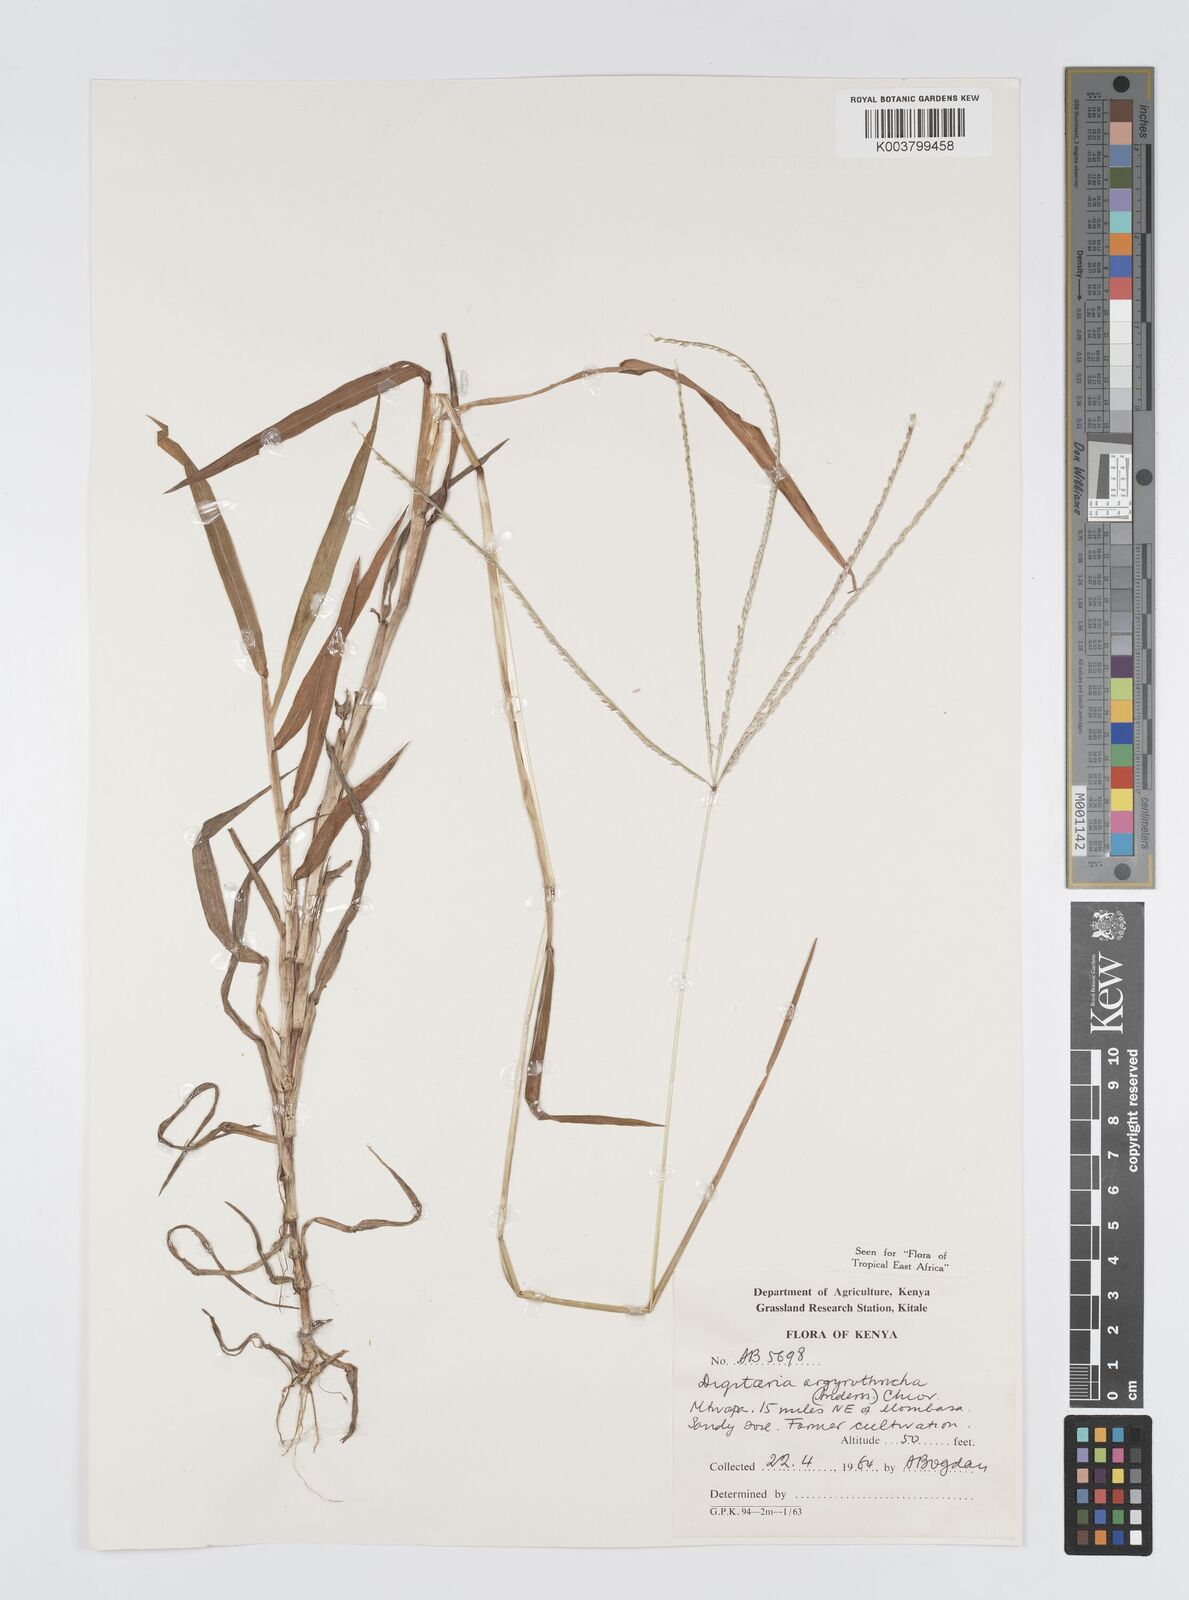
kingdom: Plantae
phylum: Tracheophyta
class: Liliopsida
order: Poales
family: Poaceae
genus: Digitaria
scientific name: Digitaria argyrotricha
